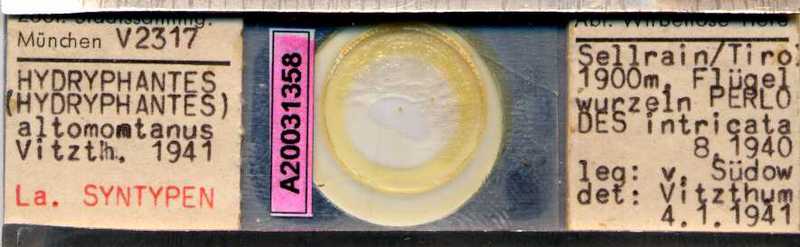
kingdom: Animalia
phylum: Arthropoda
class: Arachnida
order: Trombidiformes
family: Hydryphantidae
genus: Hydryphantes
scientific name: Hydryphantes
